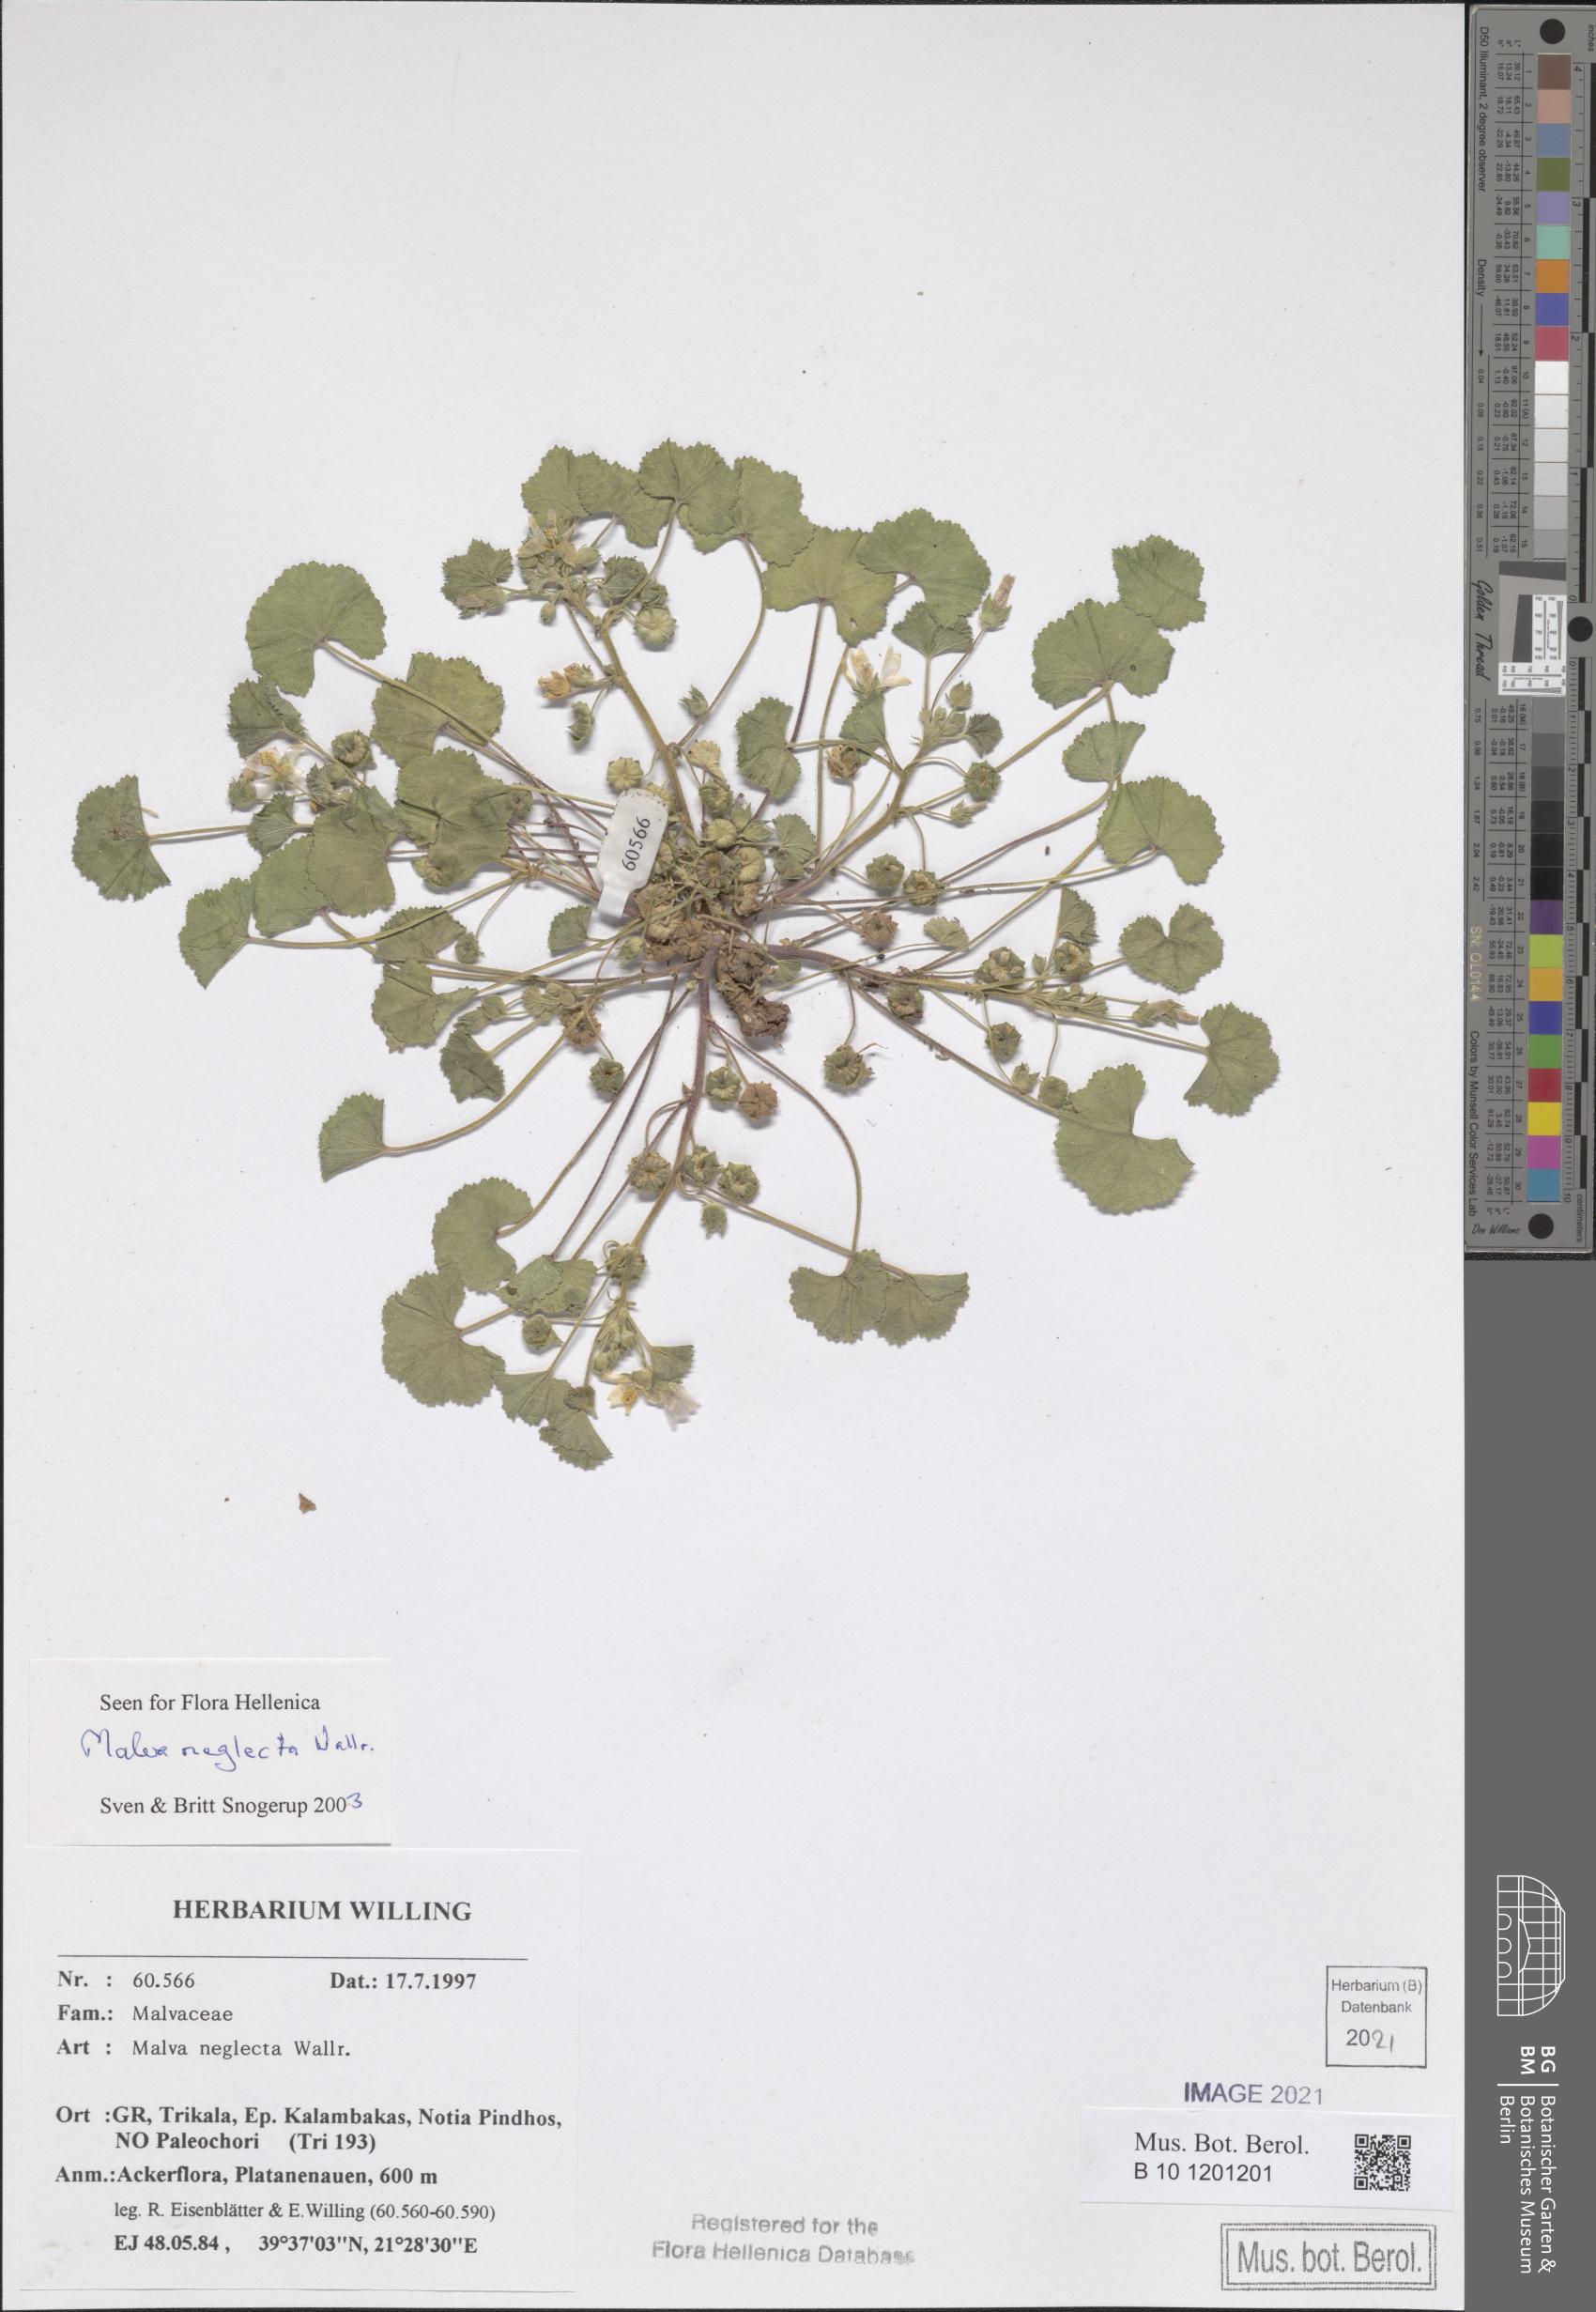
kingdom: Plantae
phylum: Tracheophyta
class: Magnoliopsida
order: Malvales
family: Malvaceae
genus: Malva
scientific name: Malva neglecta
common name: Common mallow
